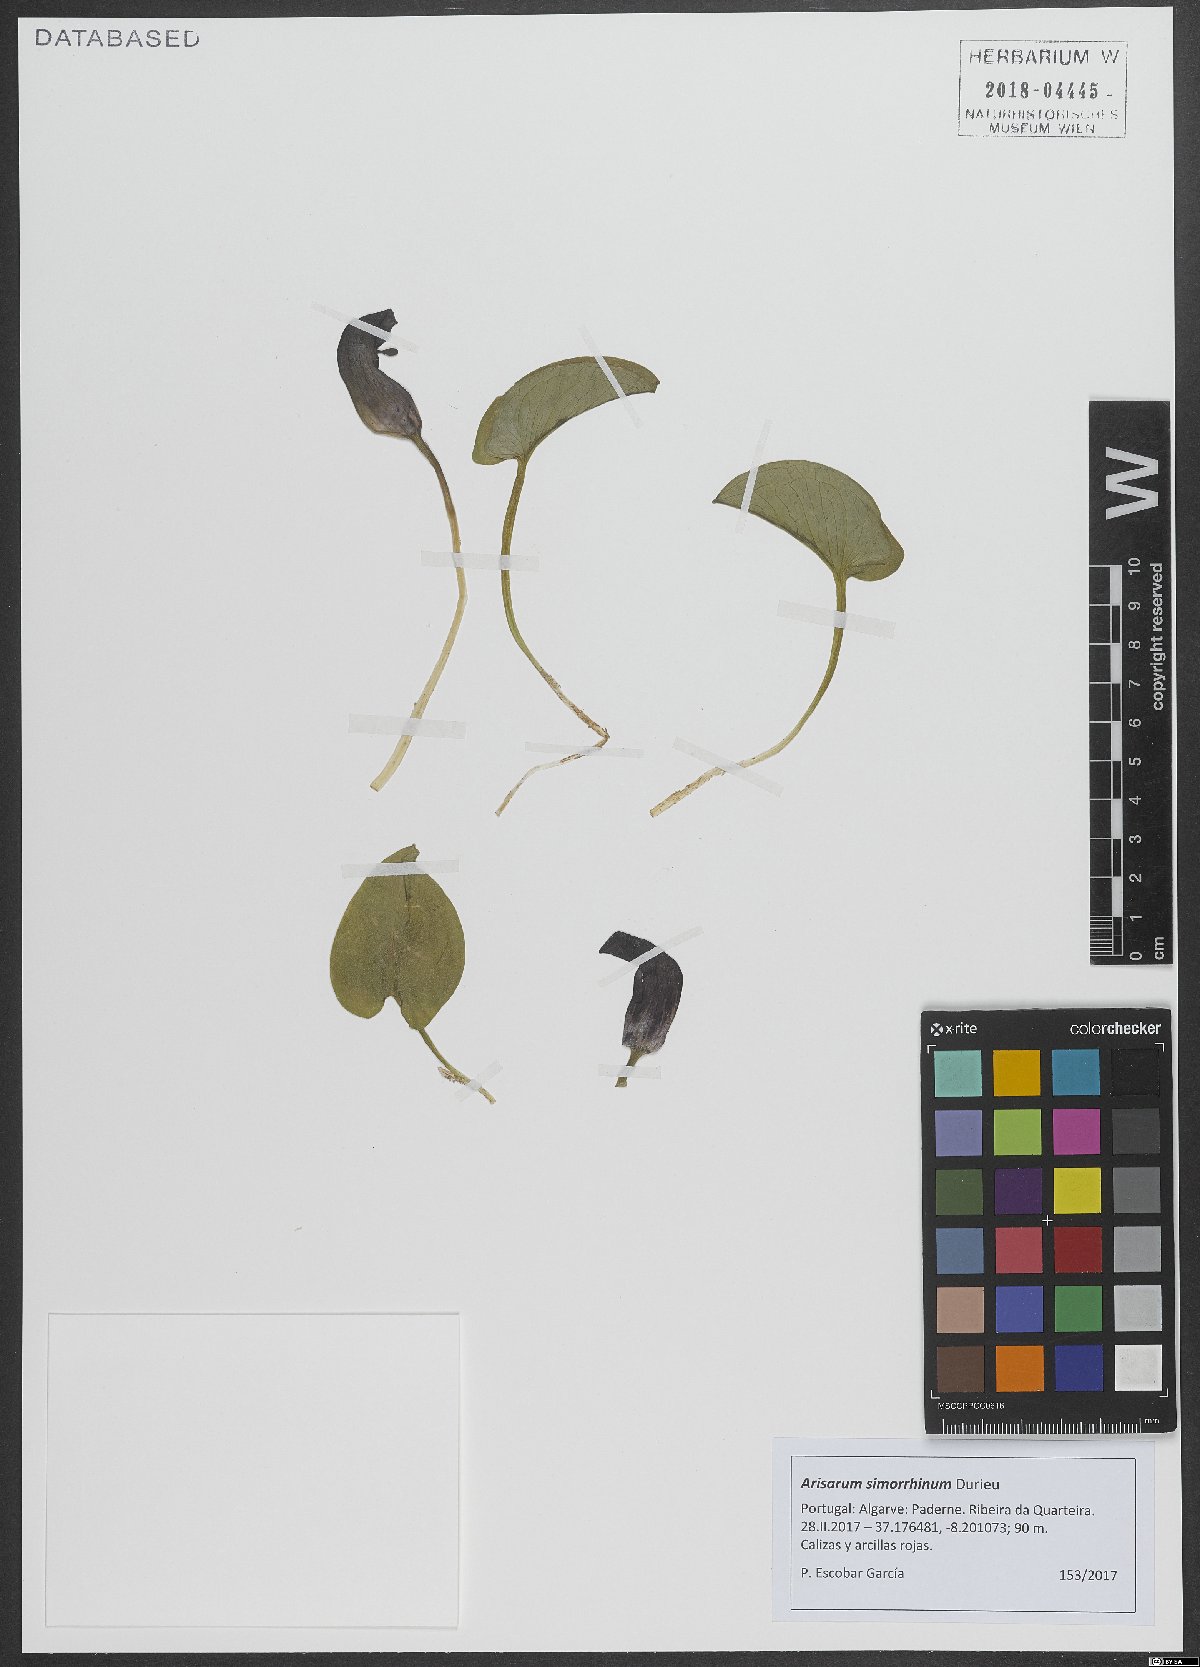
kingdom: Plantae
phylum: Tracheophyta
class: Liliopsida
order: Alismatales
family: Araceae
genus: Arisarum
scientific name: Arisarum simorrhinum
